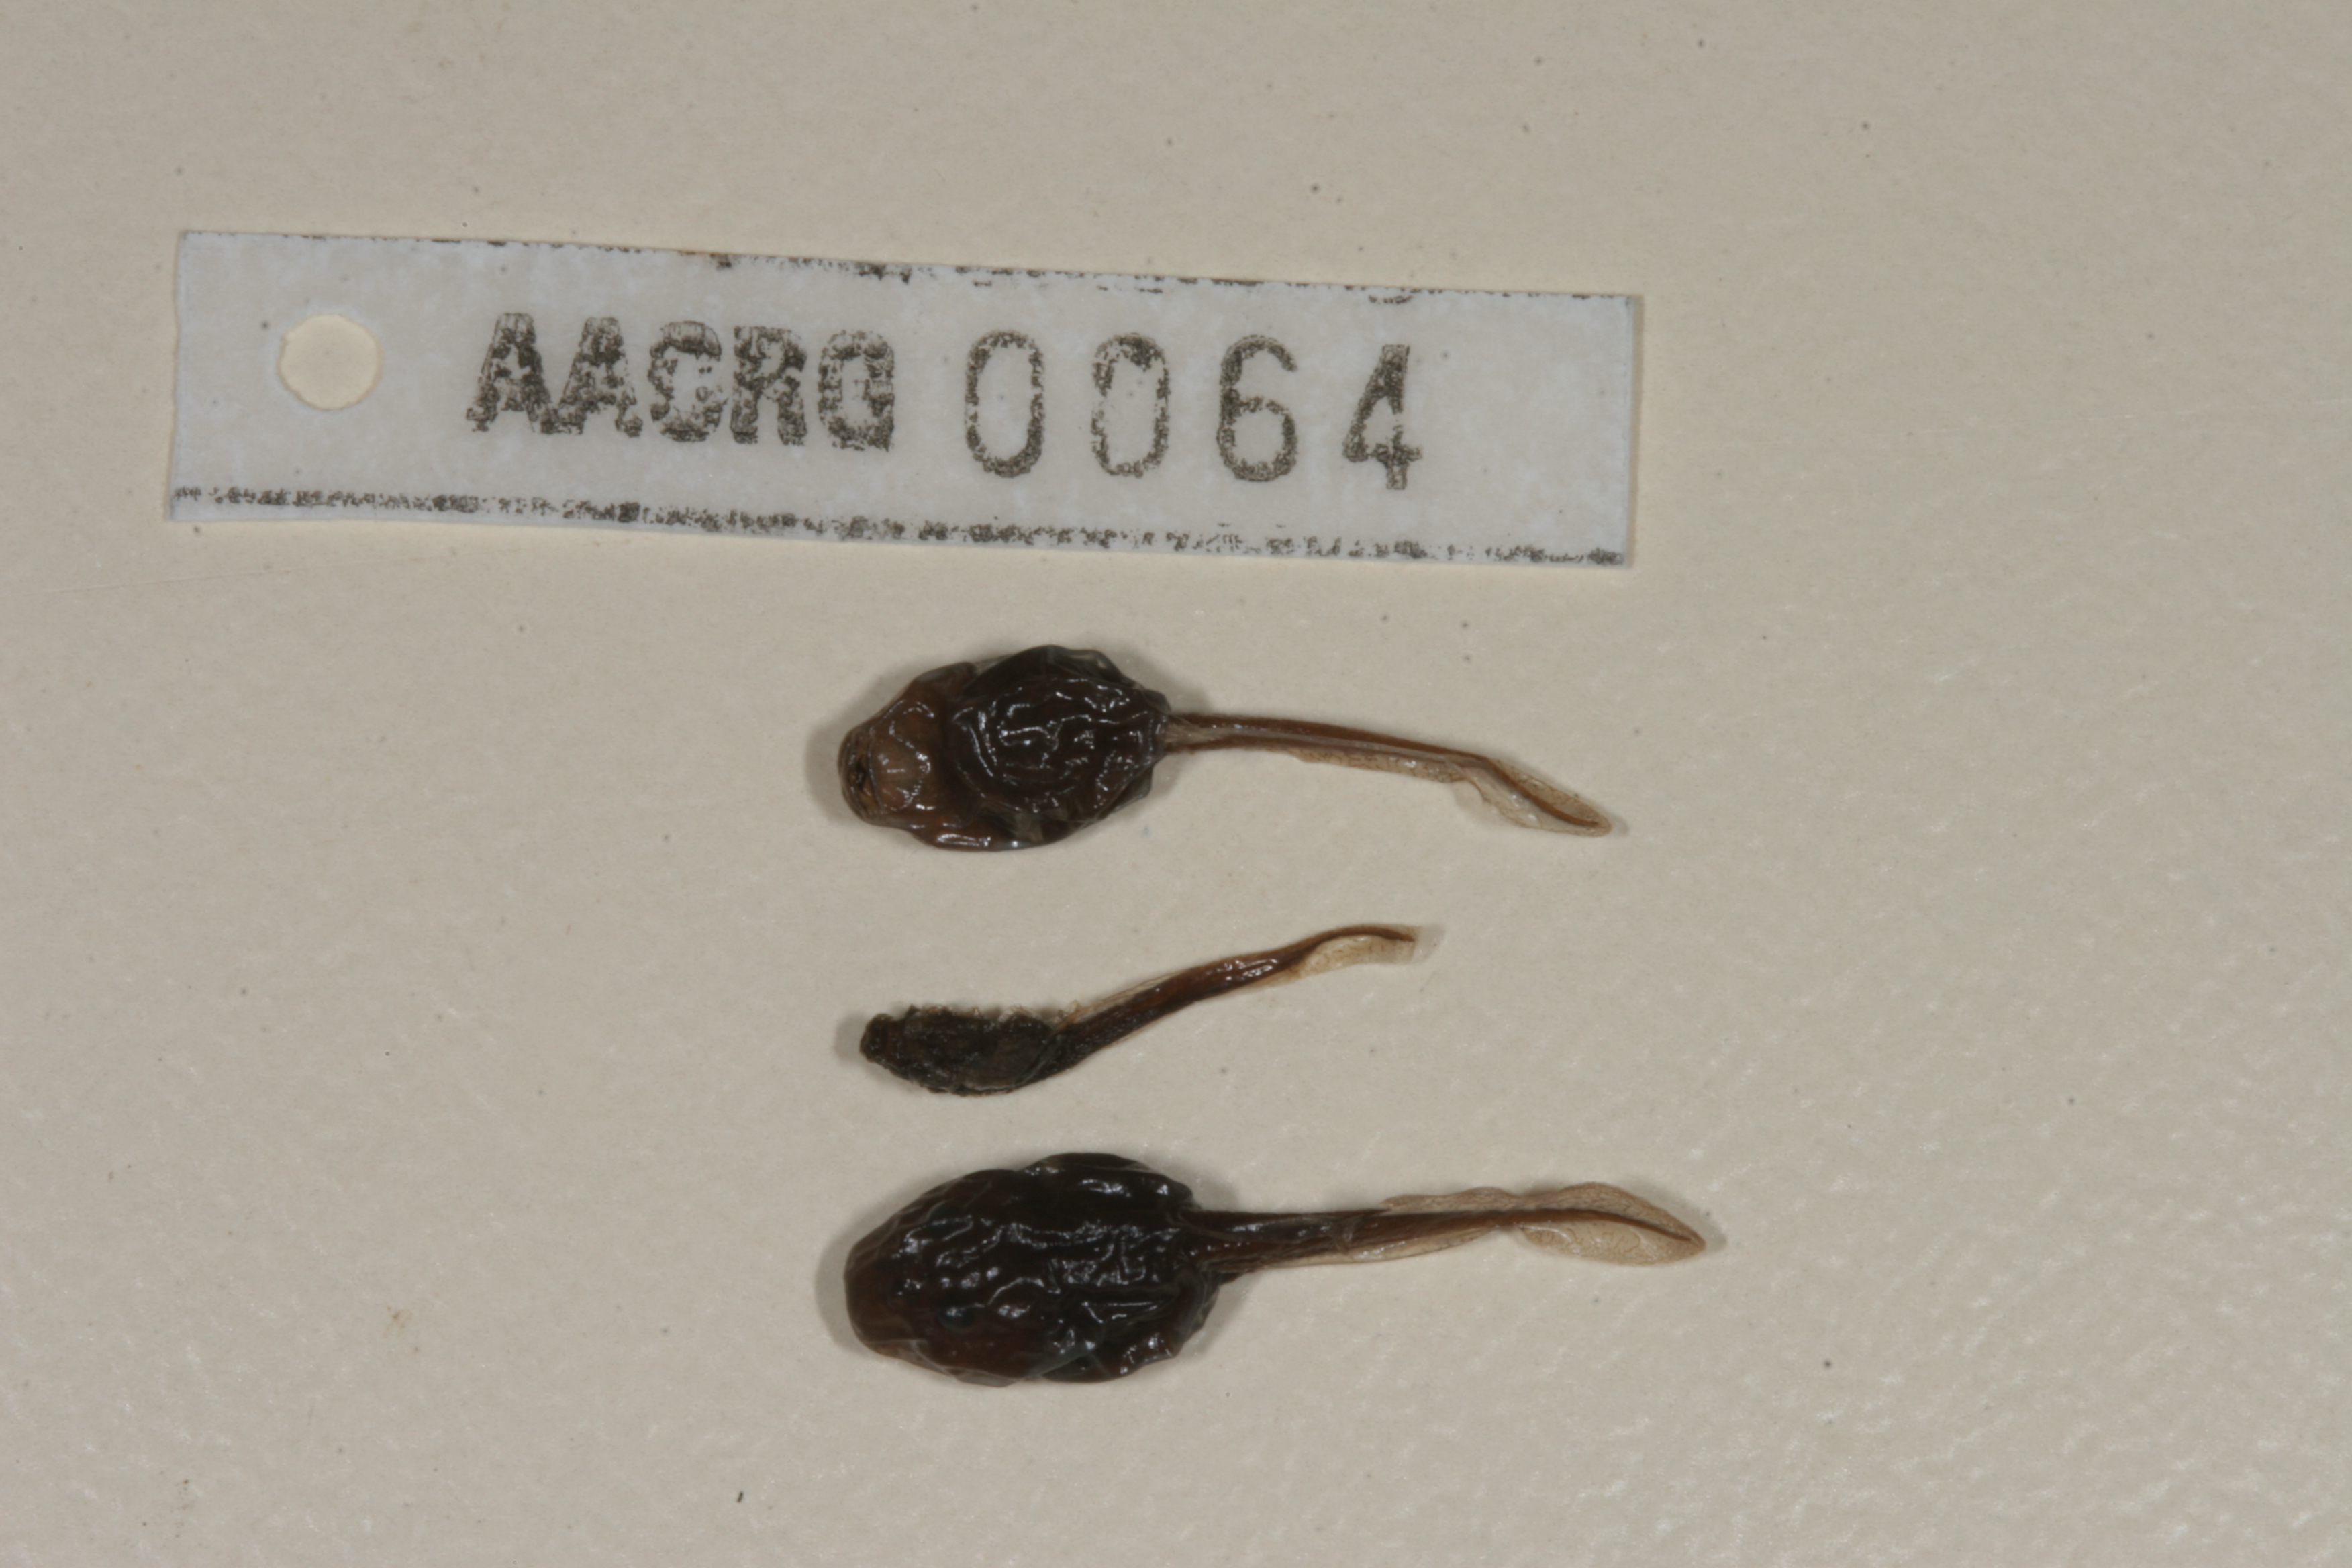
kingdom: Animalia
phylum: Chordata
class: Amphibia
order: Anura
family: Bufonidae
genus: Sclerophrys
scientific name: Sclerophrys poweri
